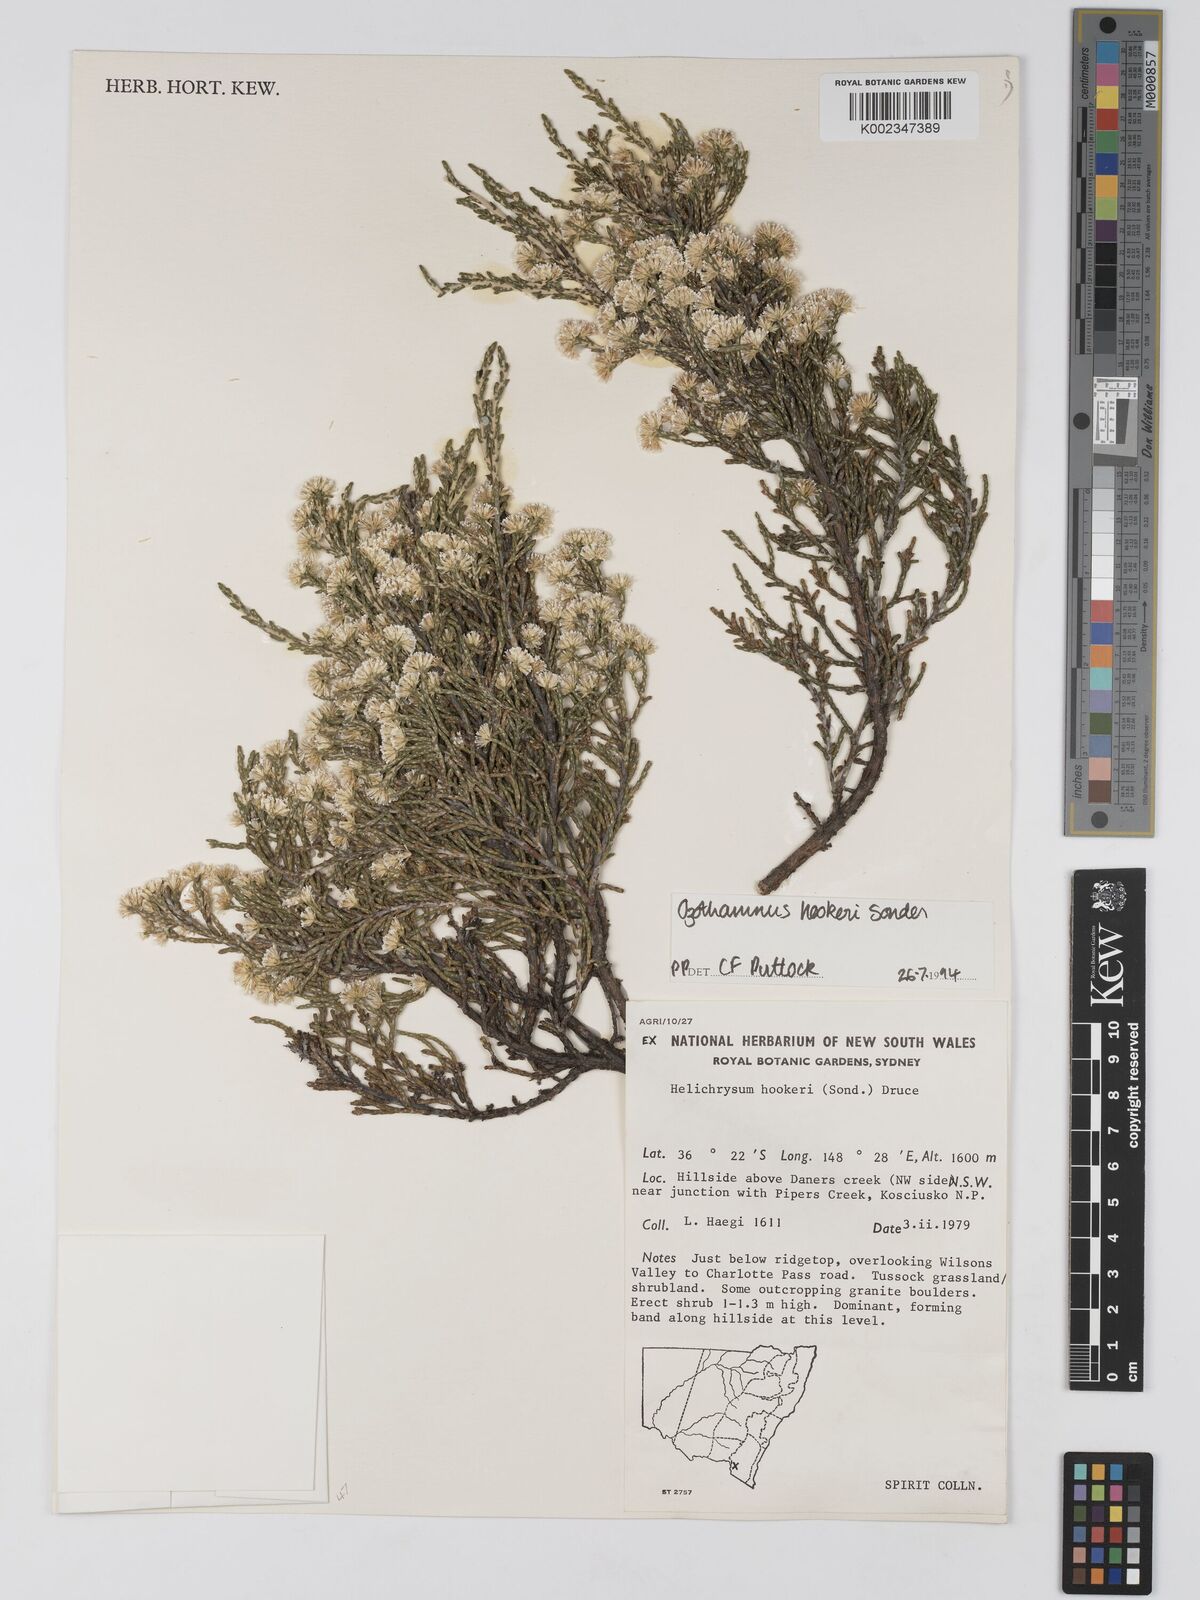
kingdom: Plantae
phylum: Tracheophyta
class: Magnoliopsida
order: Asterales
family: Asteraceae
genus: Ozothamnus
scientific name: Ozothamnus
